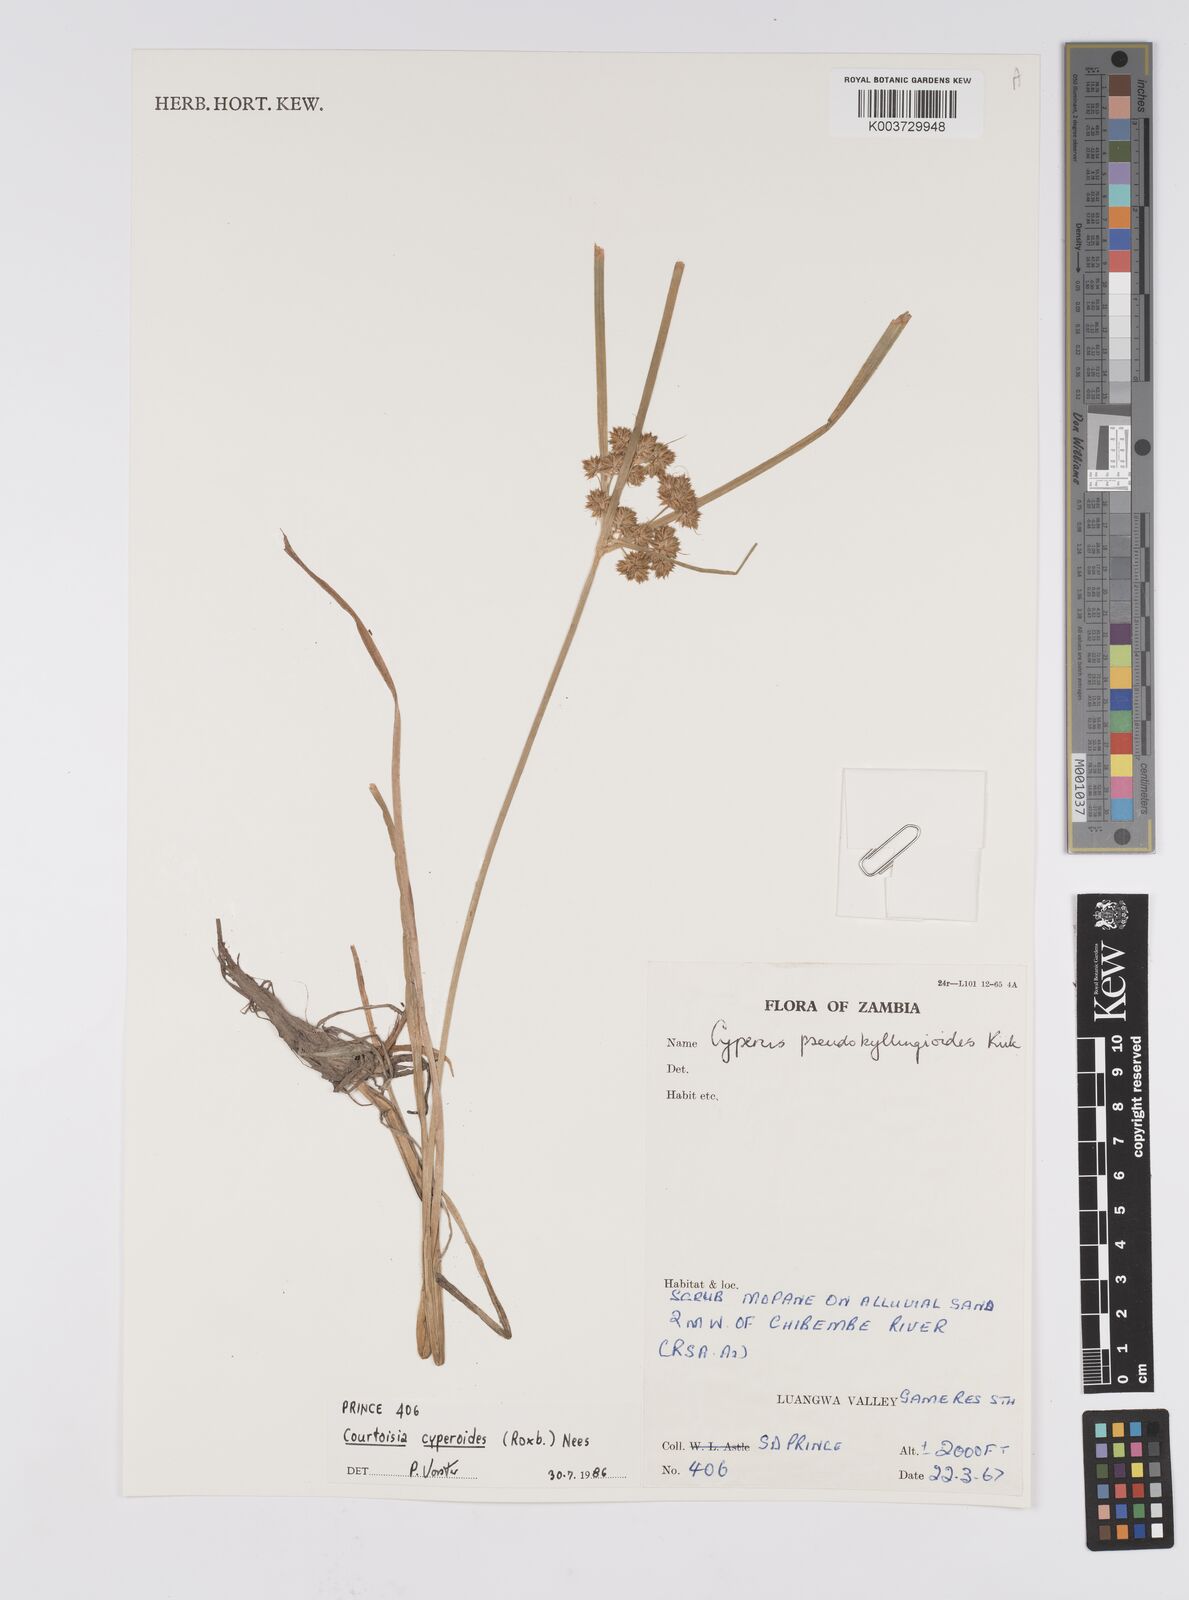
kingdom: Plantae
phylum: Tracheophyta
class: Liliopsida
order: Poales
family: Cyperaceae
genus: Cyperus
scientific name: Cyperus cyperoides
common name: Pacific island flat sedge
